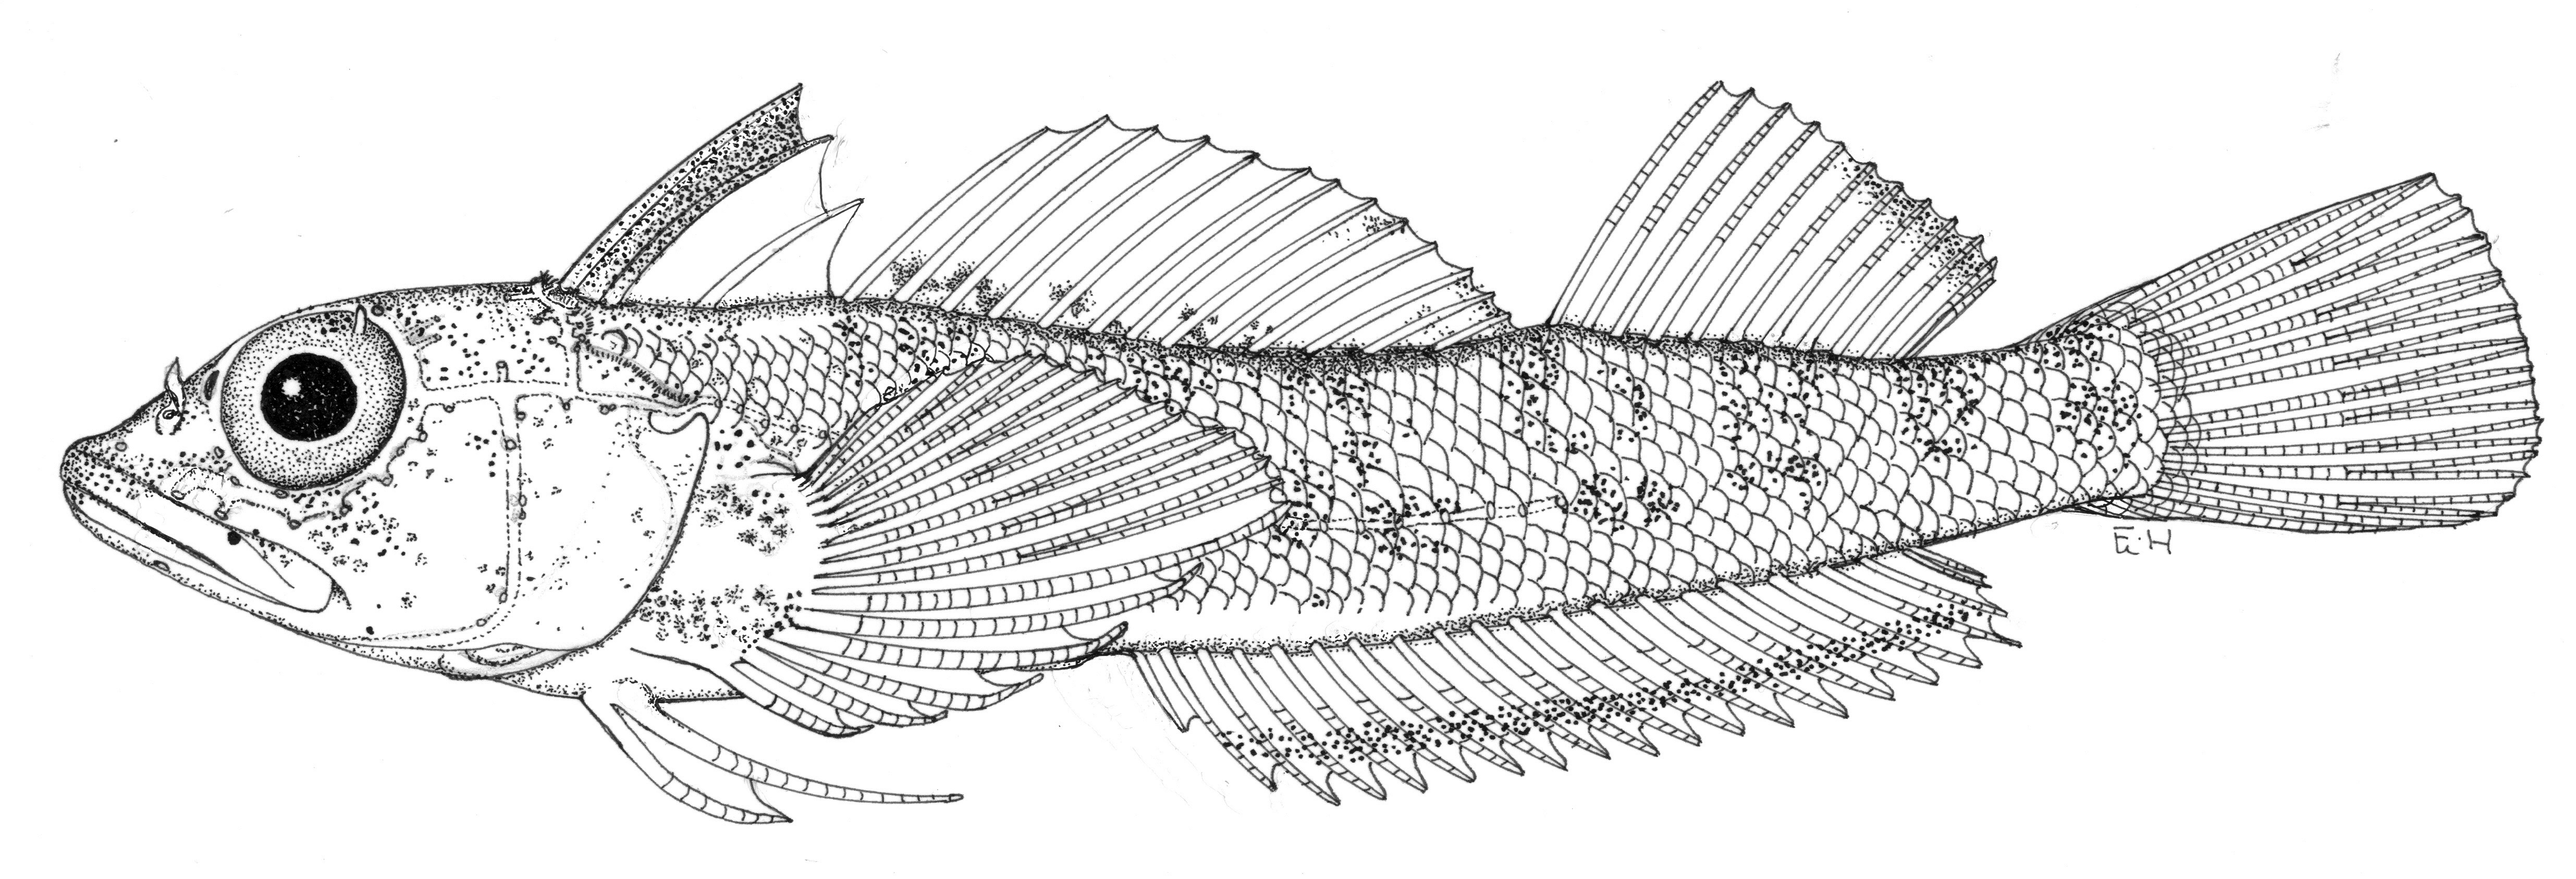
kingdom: Animalia
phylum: Chordata
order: Perciformes
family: Tripterygiidae
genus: Helcogramma
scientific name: Helcogramma steinitzi
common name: Red triplefin
